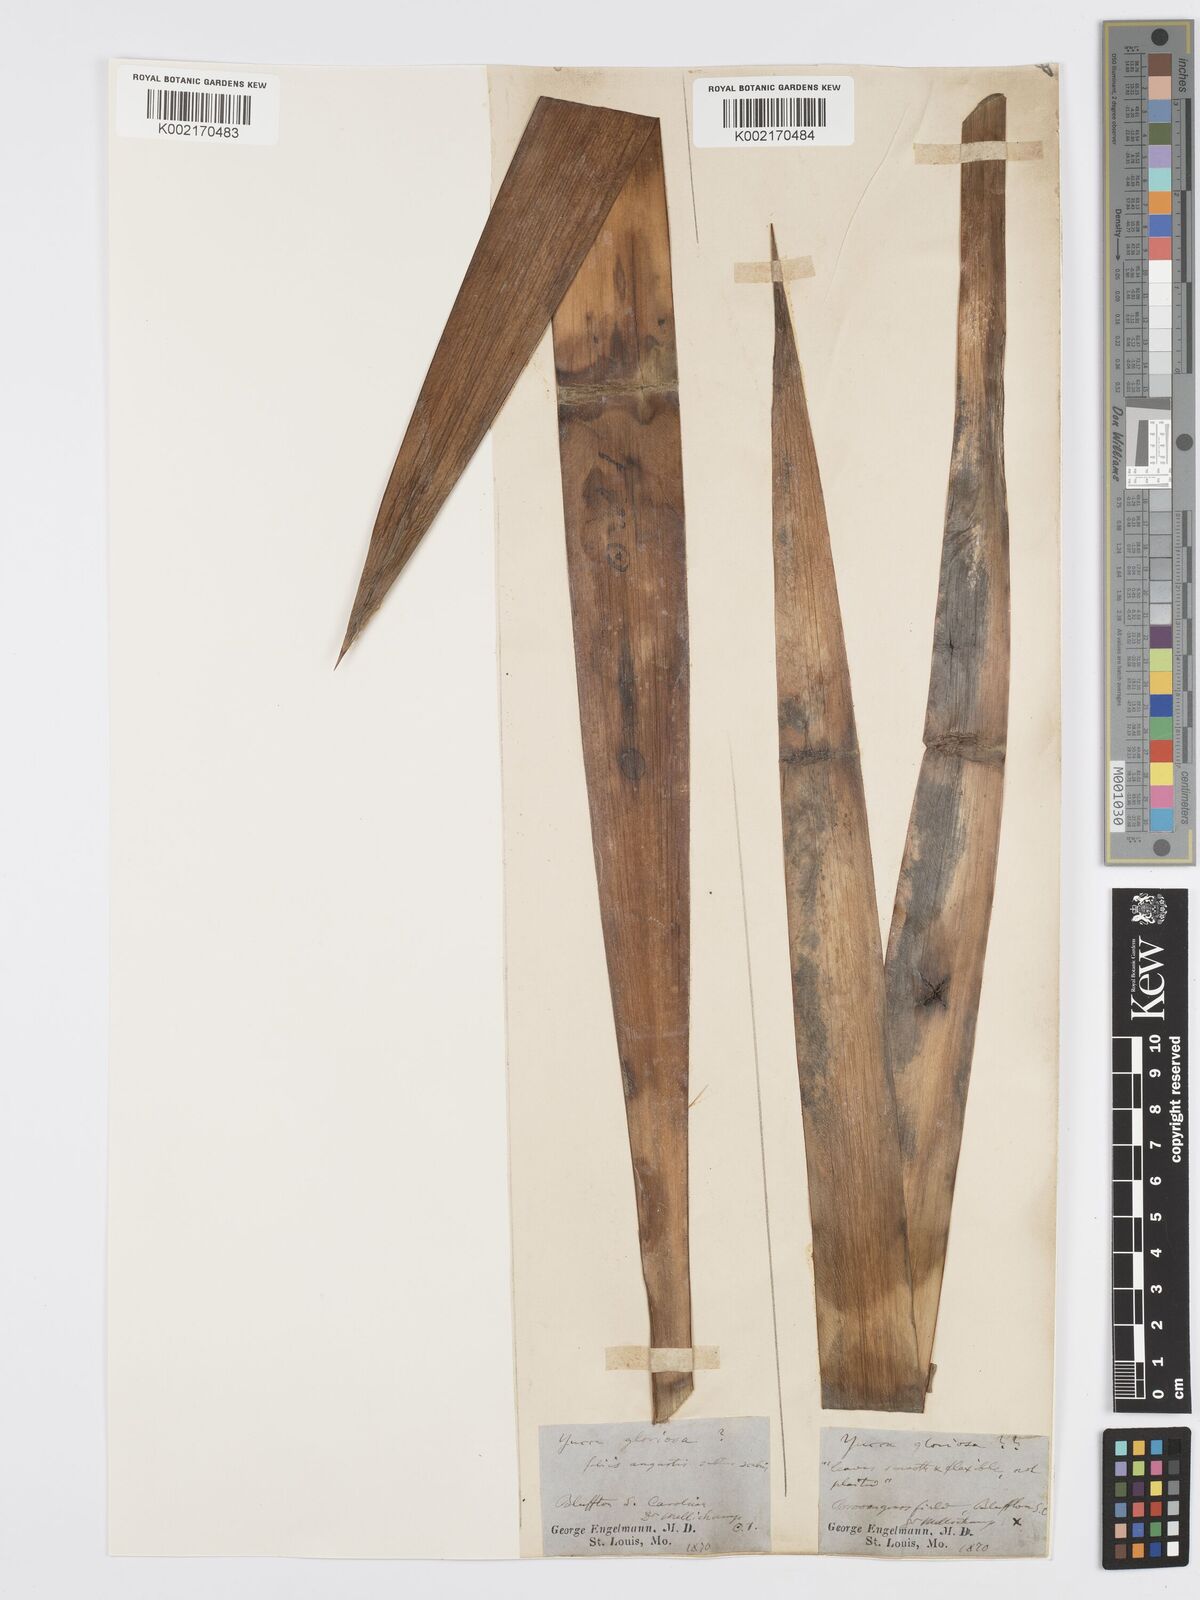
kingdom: Plantae
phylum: Tracheophyta
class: Liliopsida
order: Asparagales
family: Asparagaceae
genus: Yucca
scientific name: Yucca gloriosa
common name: Spanish-dagger
